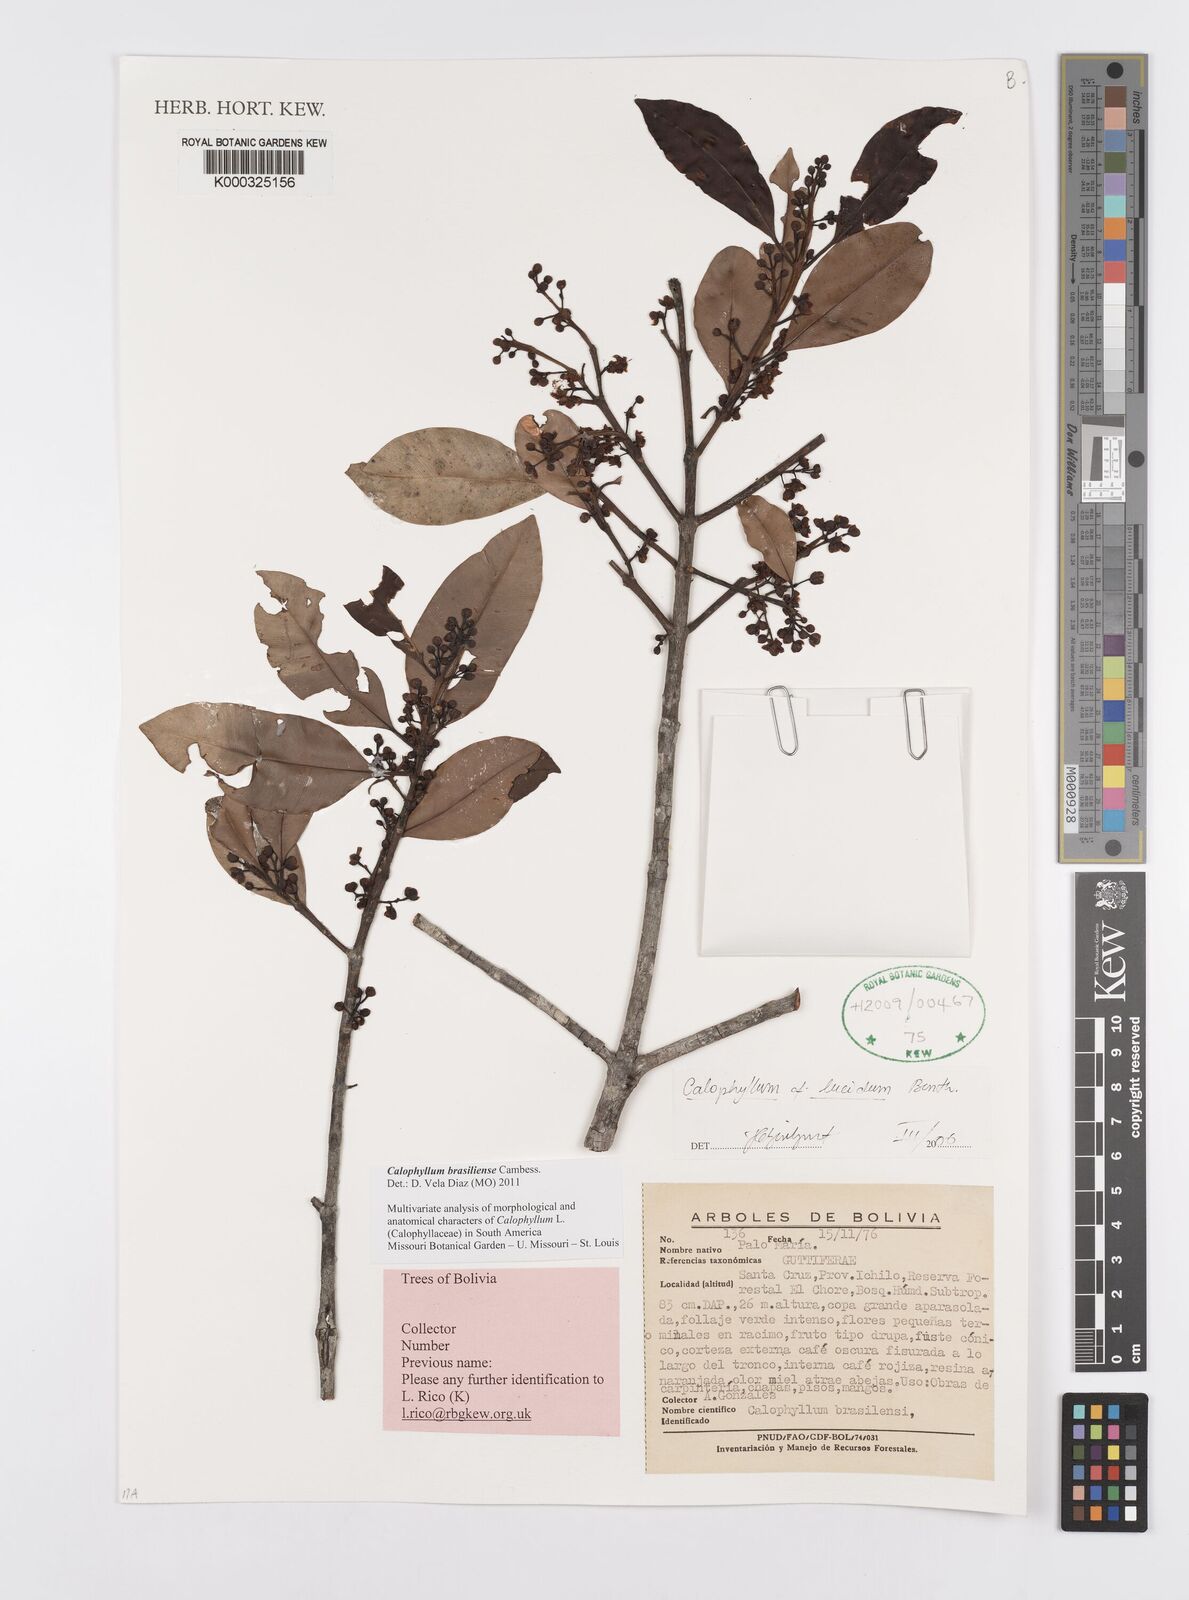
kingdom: Plantae
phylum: Tracheophyta
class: Magnoliopsida
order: Malpighiales
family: Calophyllaceae
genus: Calophyllum
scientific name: Calophyllum brasiliense
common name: Santa maria
